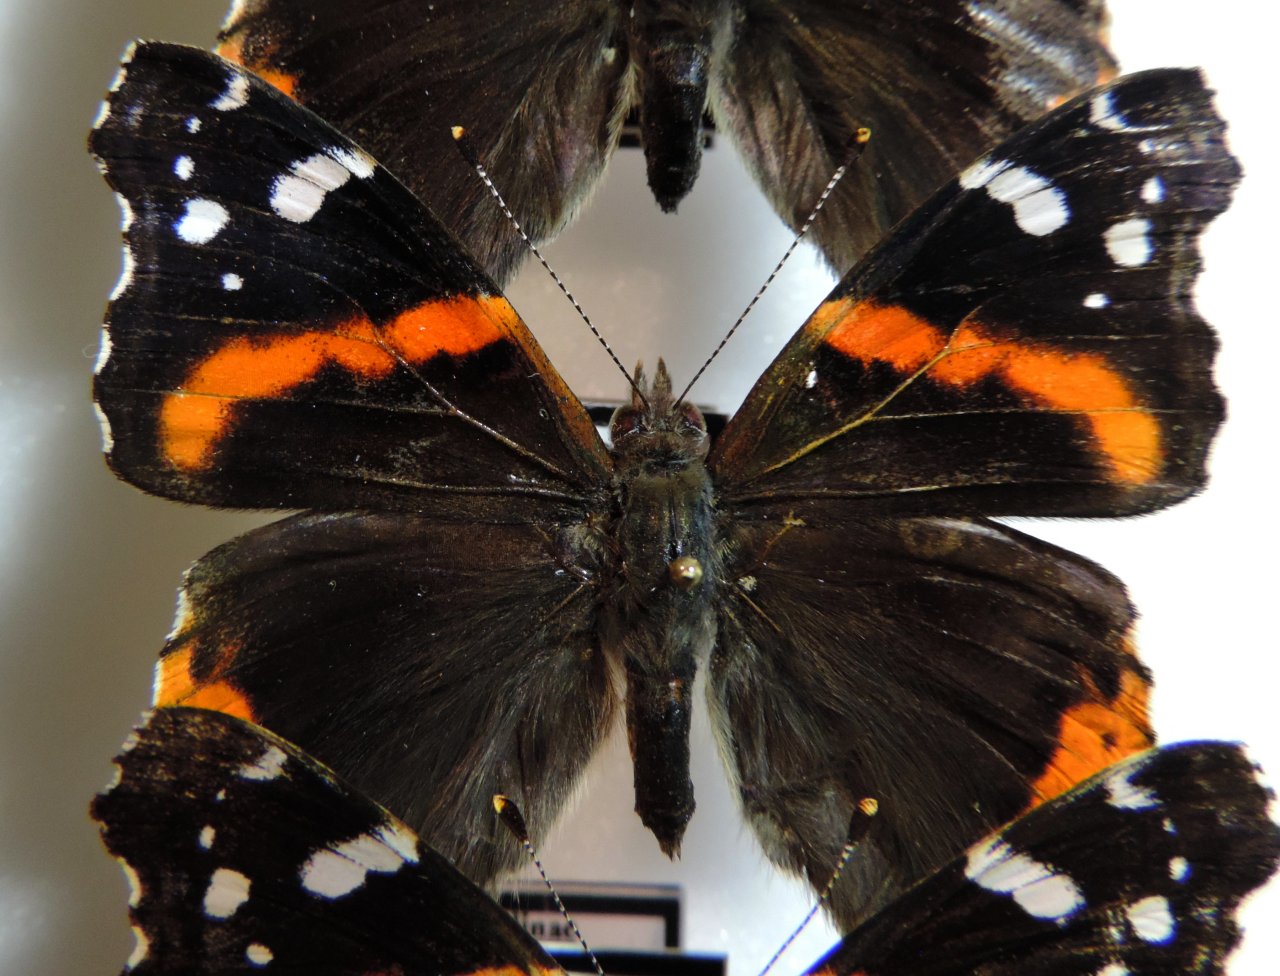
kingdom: Animalia
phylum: Arthropoda
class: Insecta
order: Lepidoptera
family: Nymphalidae
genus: Vanessa
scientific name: Vanessa atalanta
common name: Red Admiral
